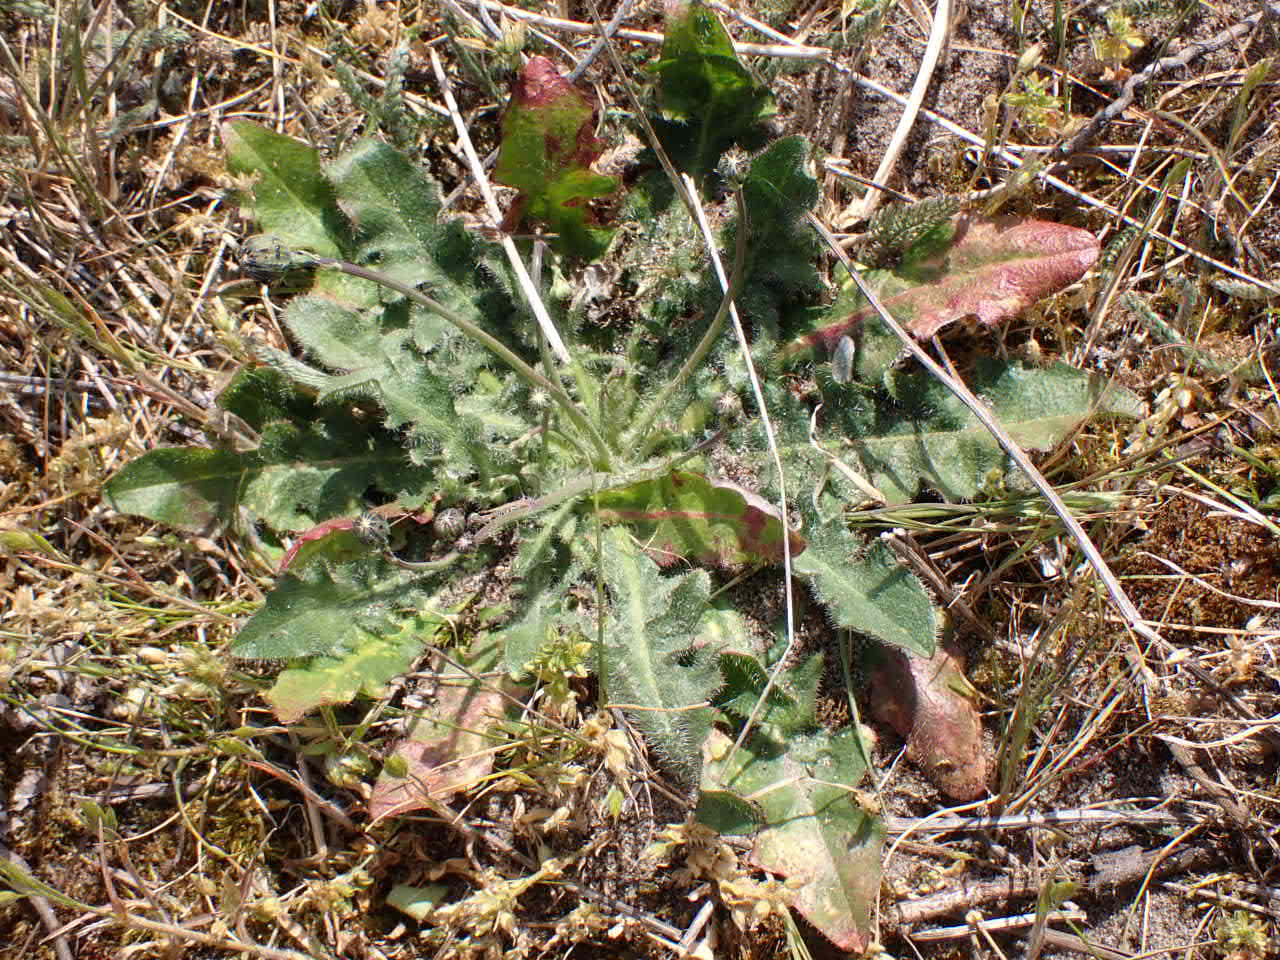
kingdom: Plantae
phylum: Tracheophyta
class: Magnoliopsida
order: Asterales
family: Asteraceae
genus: Hypochaeris
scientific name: Hypochaeris radicata
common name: Almindelig kongepen
